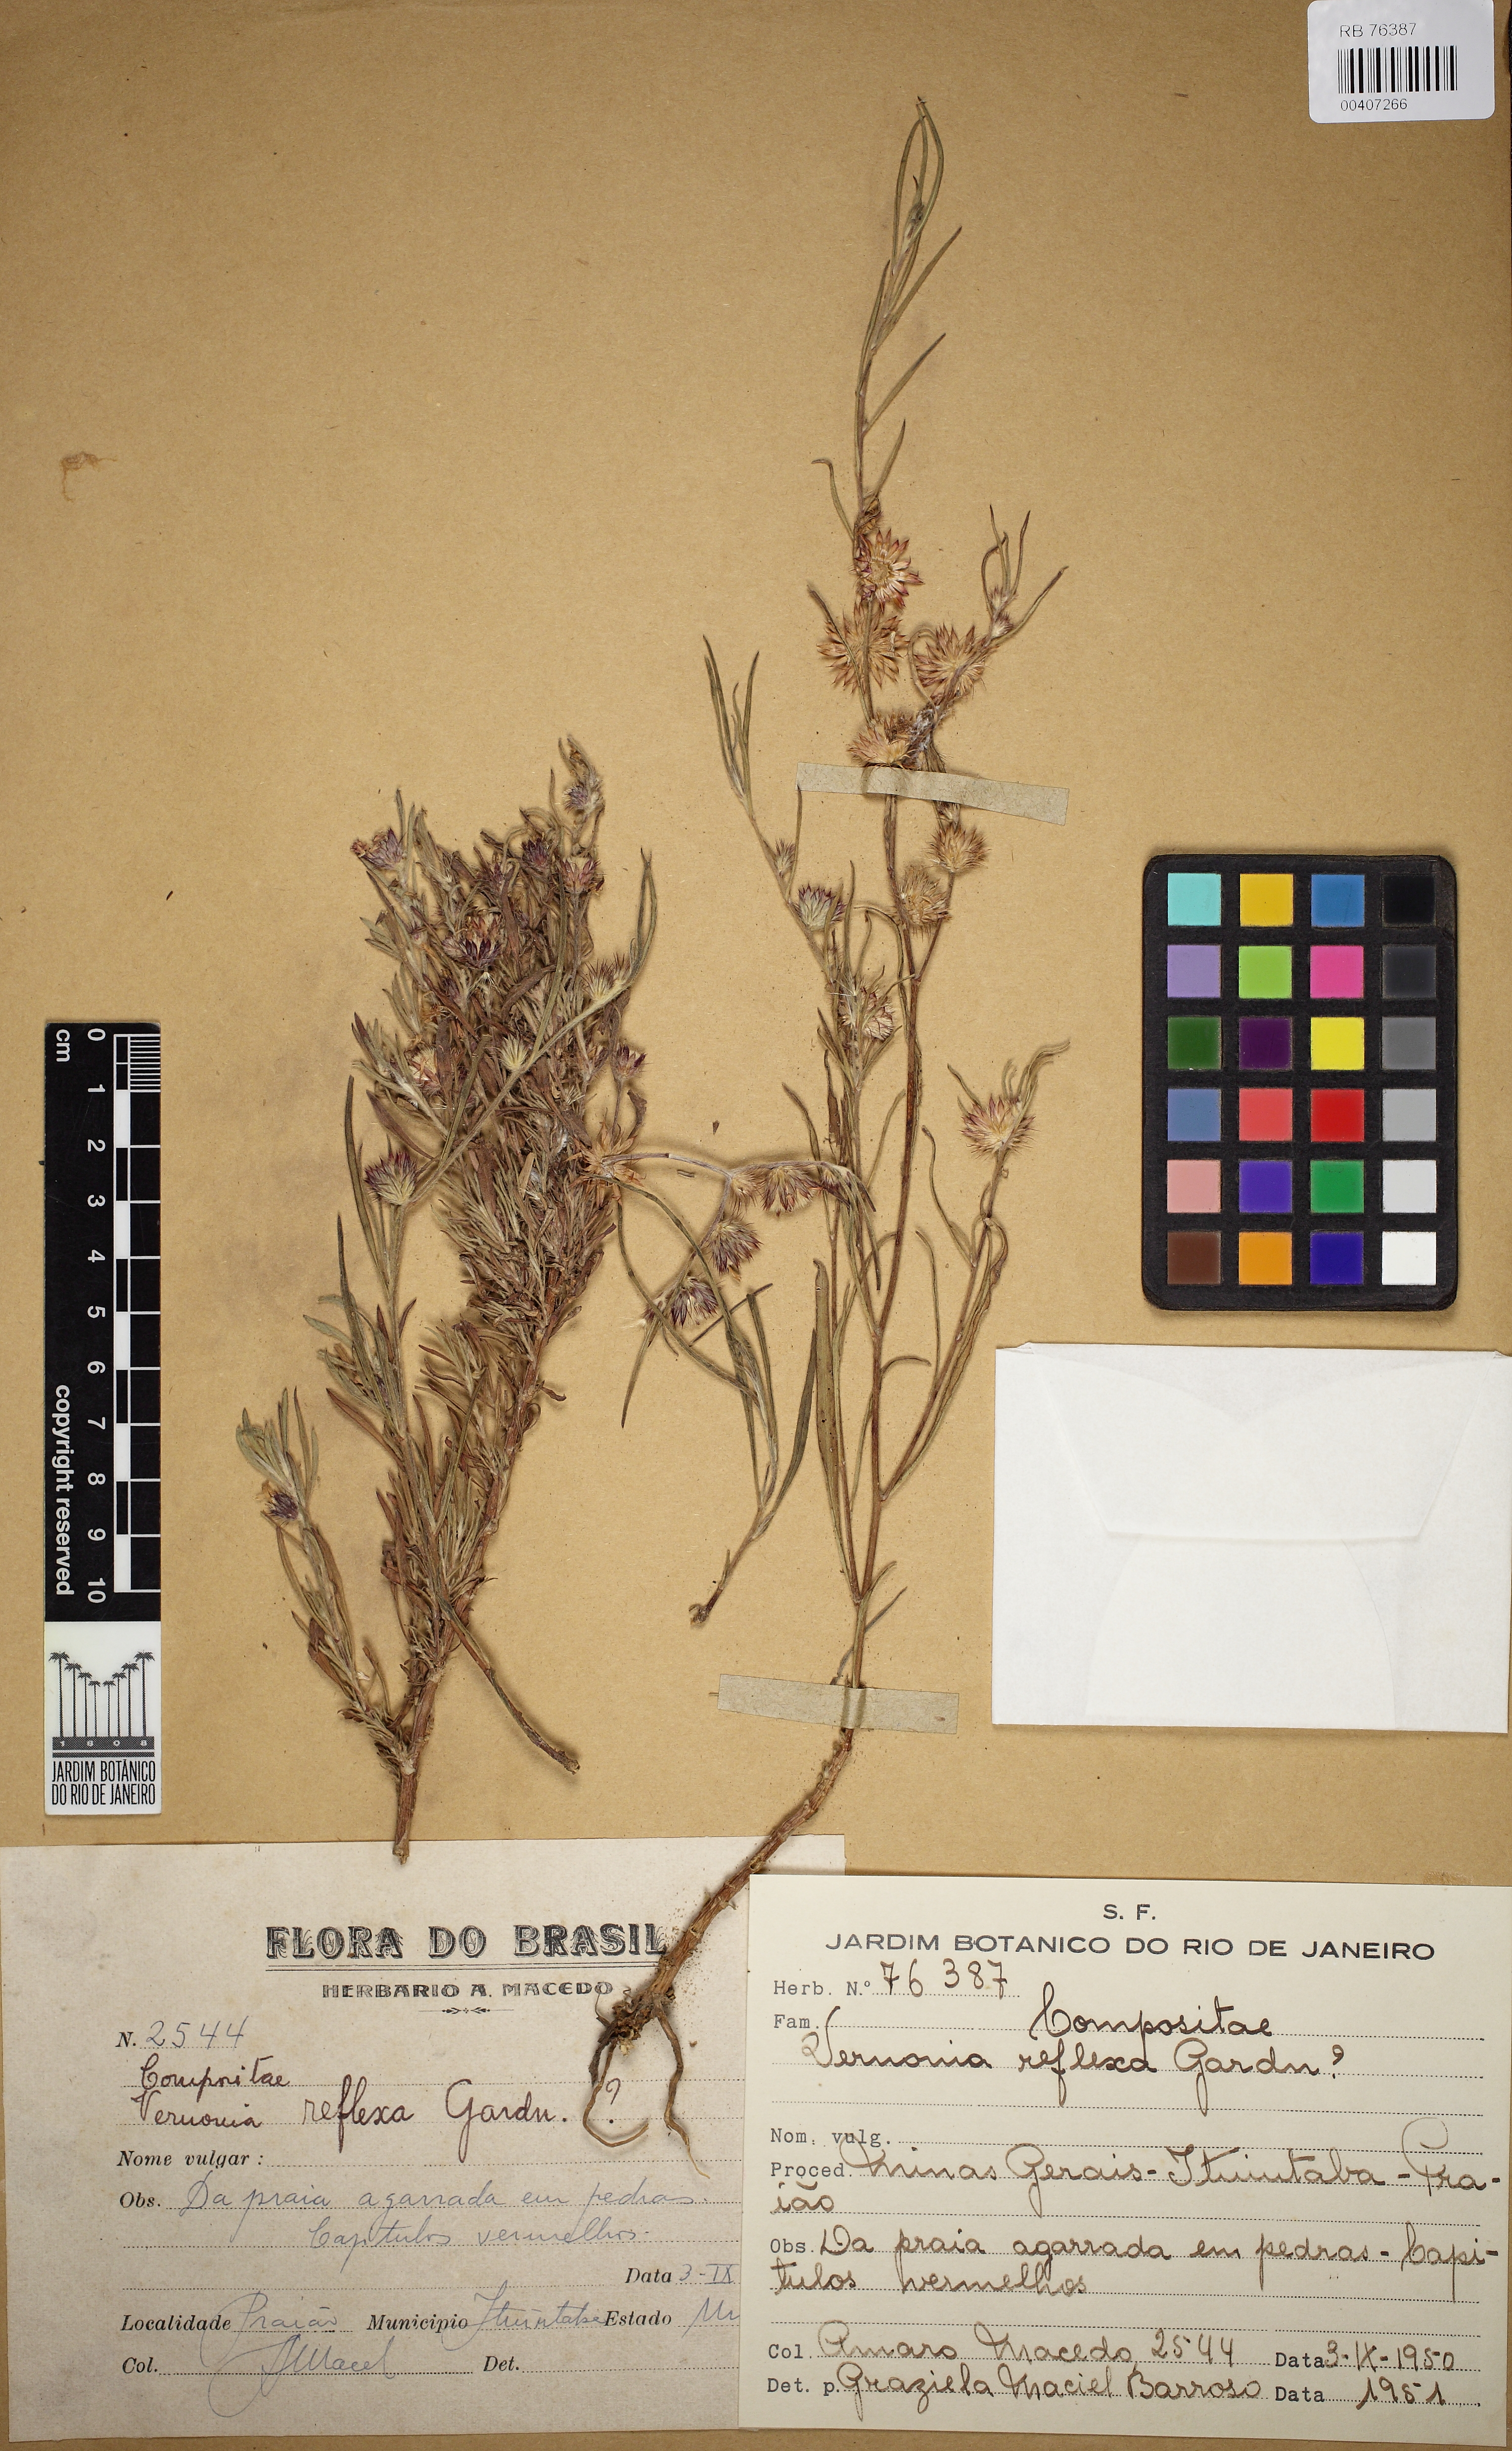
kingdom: Plantae
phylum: Tracheophyta
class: Magnoliopsida
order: Asterales
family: Asteraceae
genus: Lepidaploa
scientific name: Lepidaploa reflexa
